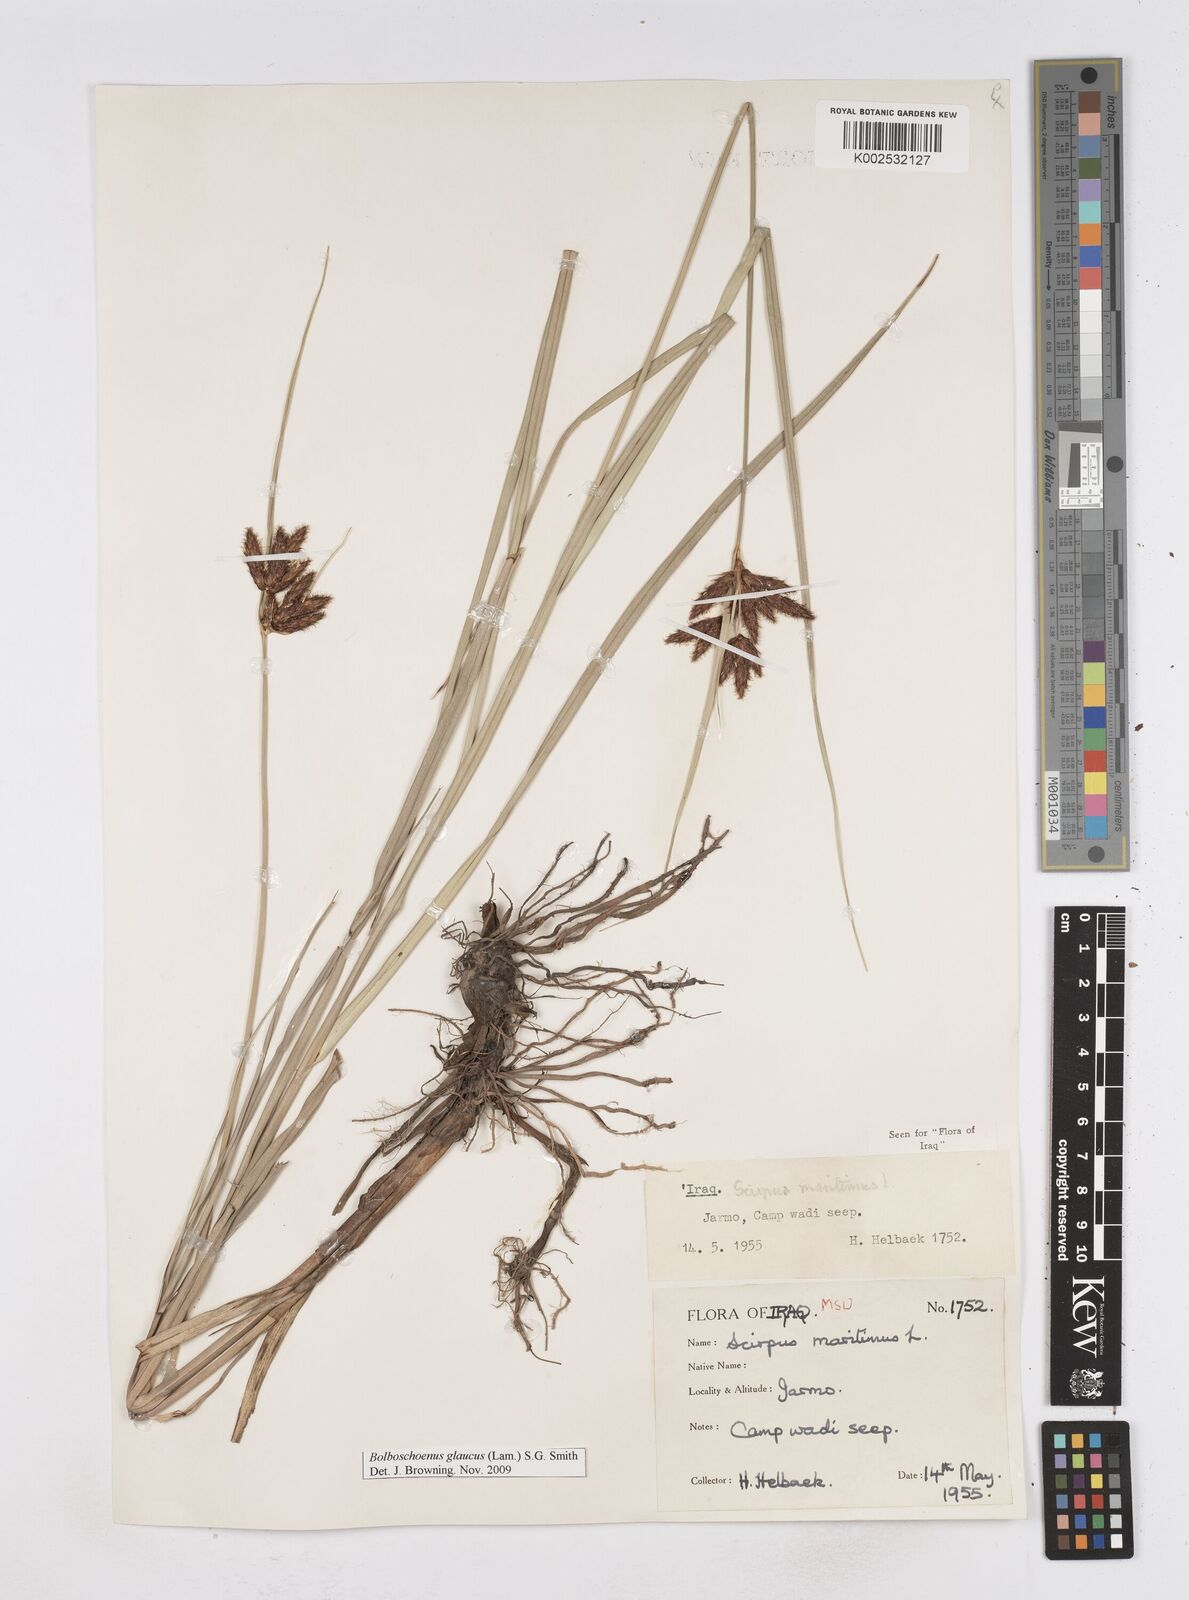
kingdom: Plantae
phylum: Tracheophyta
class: Liliopsida
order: Poales
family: Cyperaceae
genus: Bolboschoenus
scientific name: Bolboschoenus maritimus
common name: Sea club-rush
